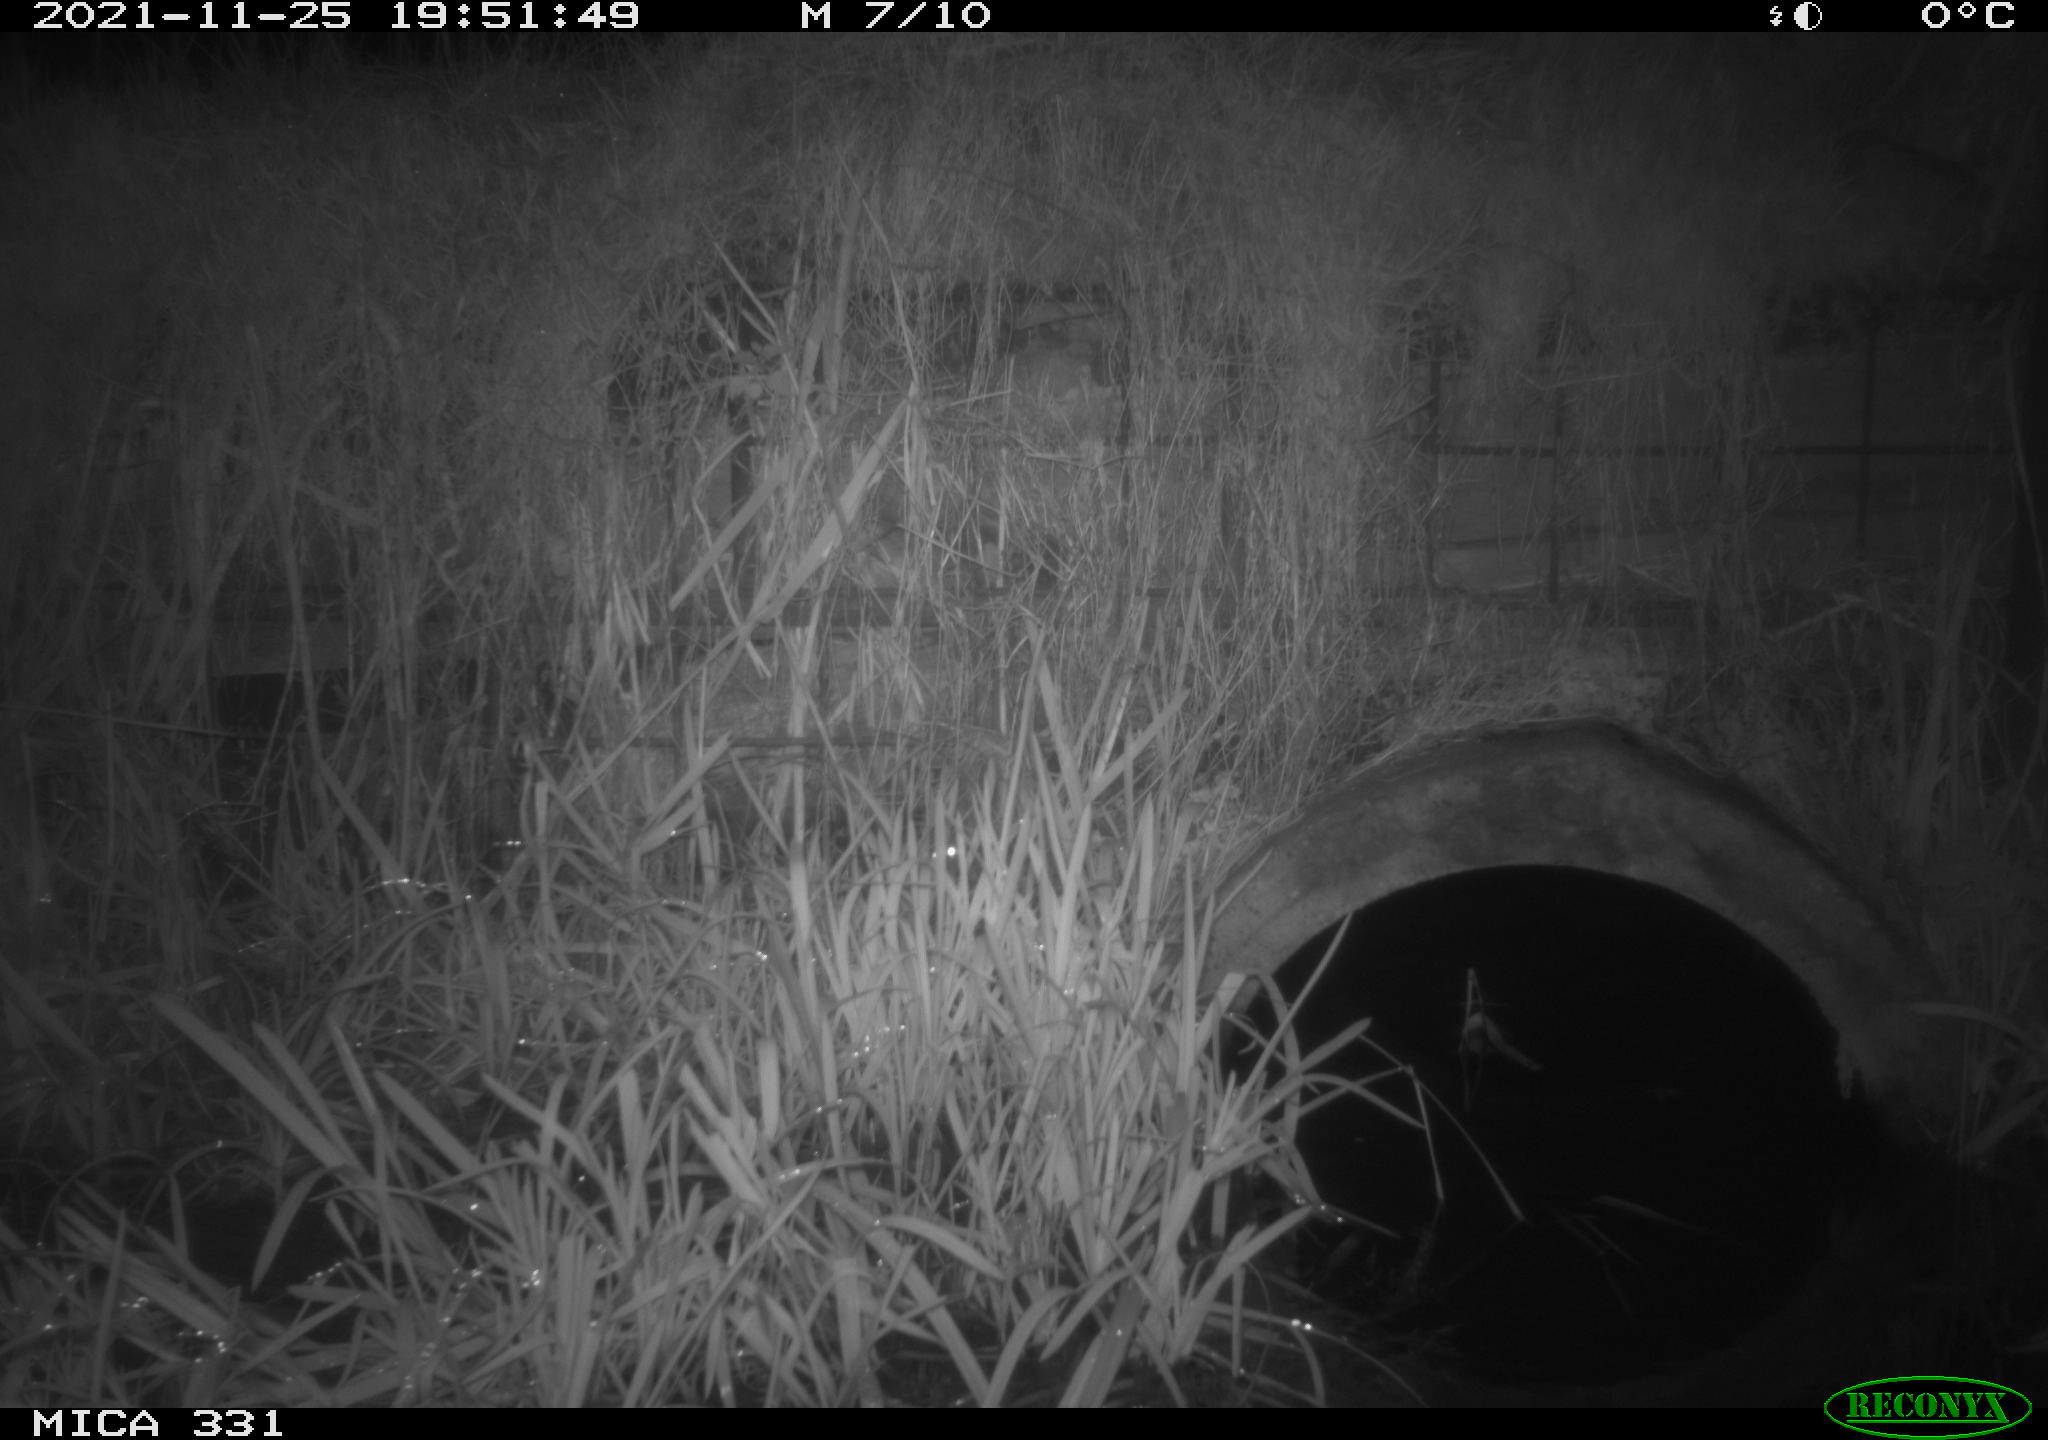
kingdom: Animalia
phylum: Chordata
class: Mammalia
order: Rodentia
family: Muridae
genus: Rattus
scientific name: Rattus norvegicus
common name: Brown rat
